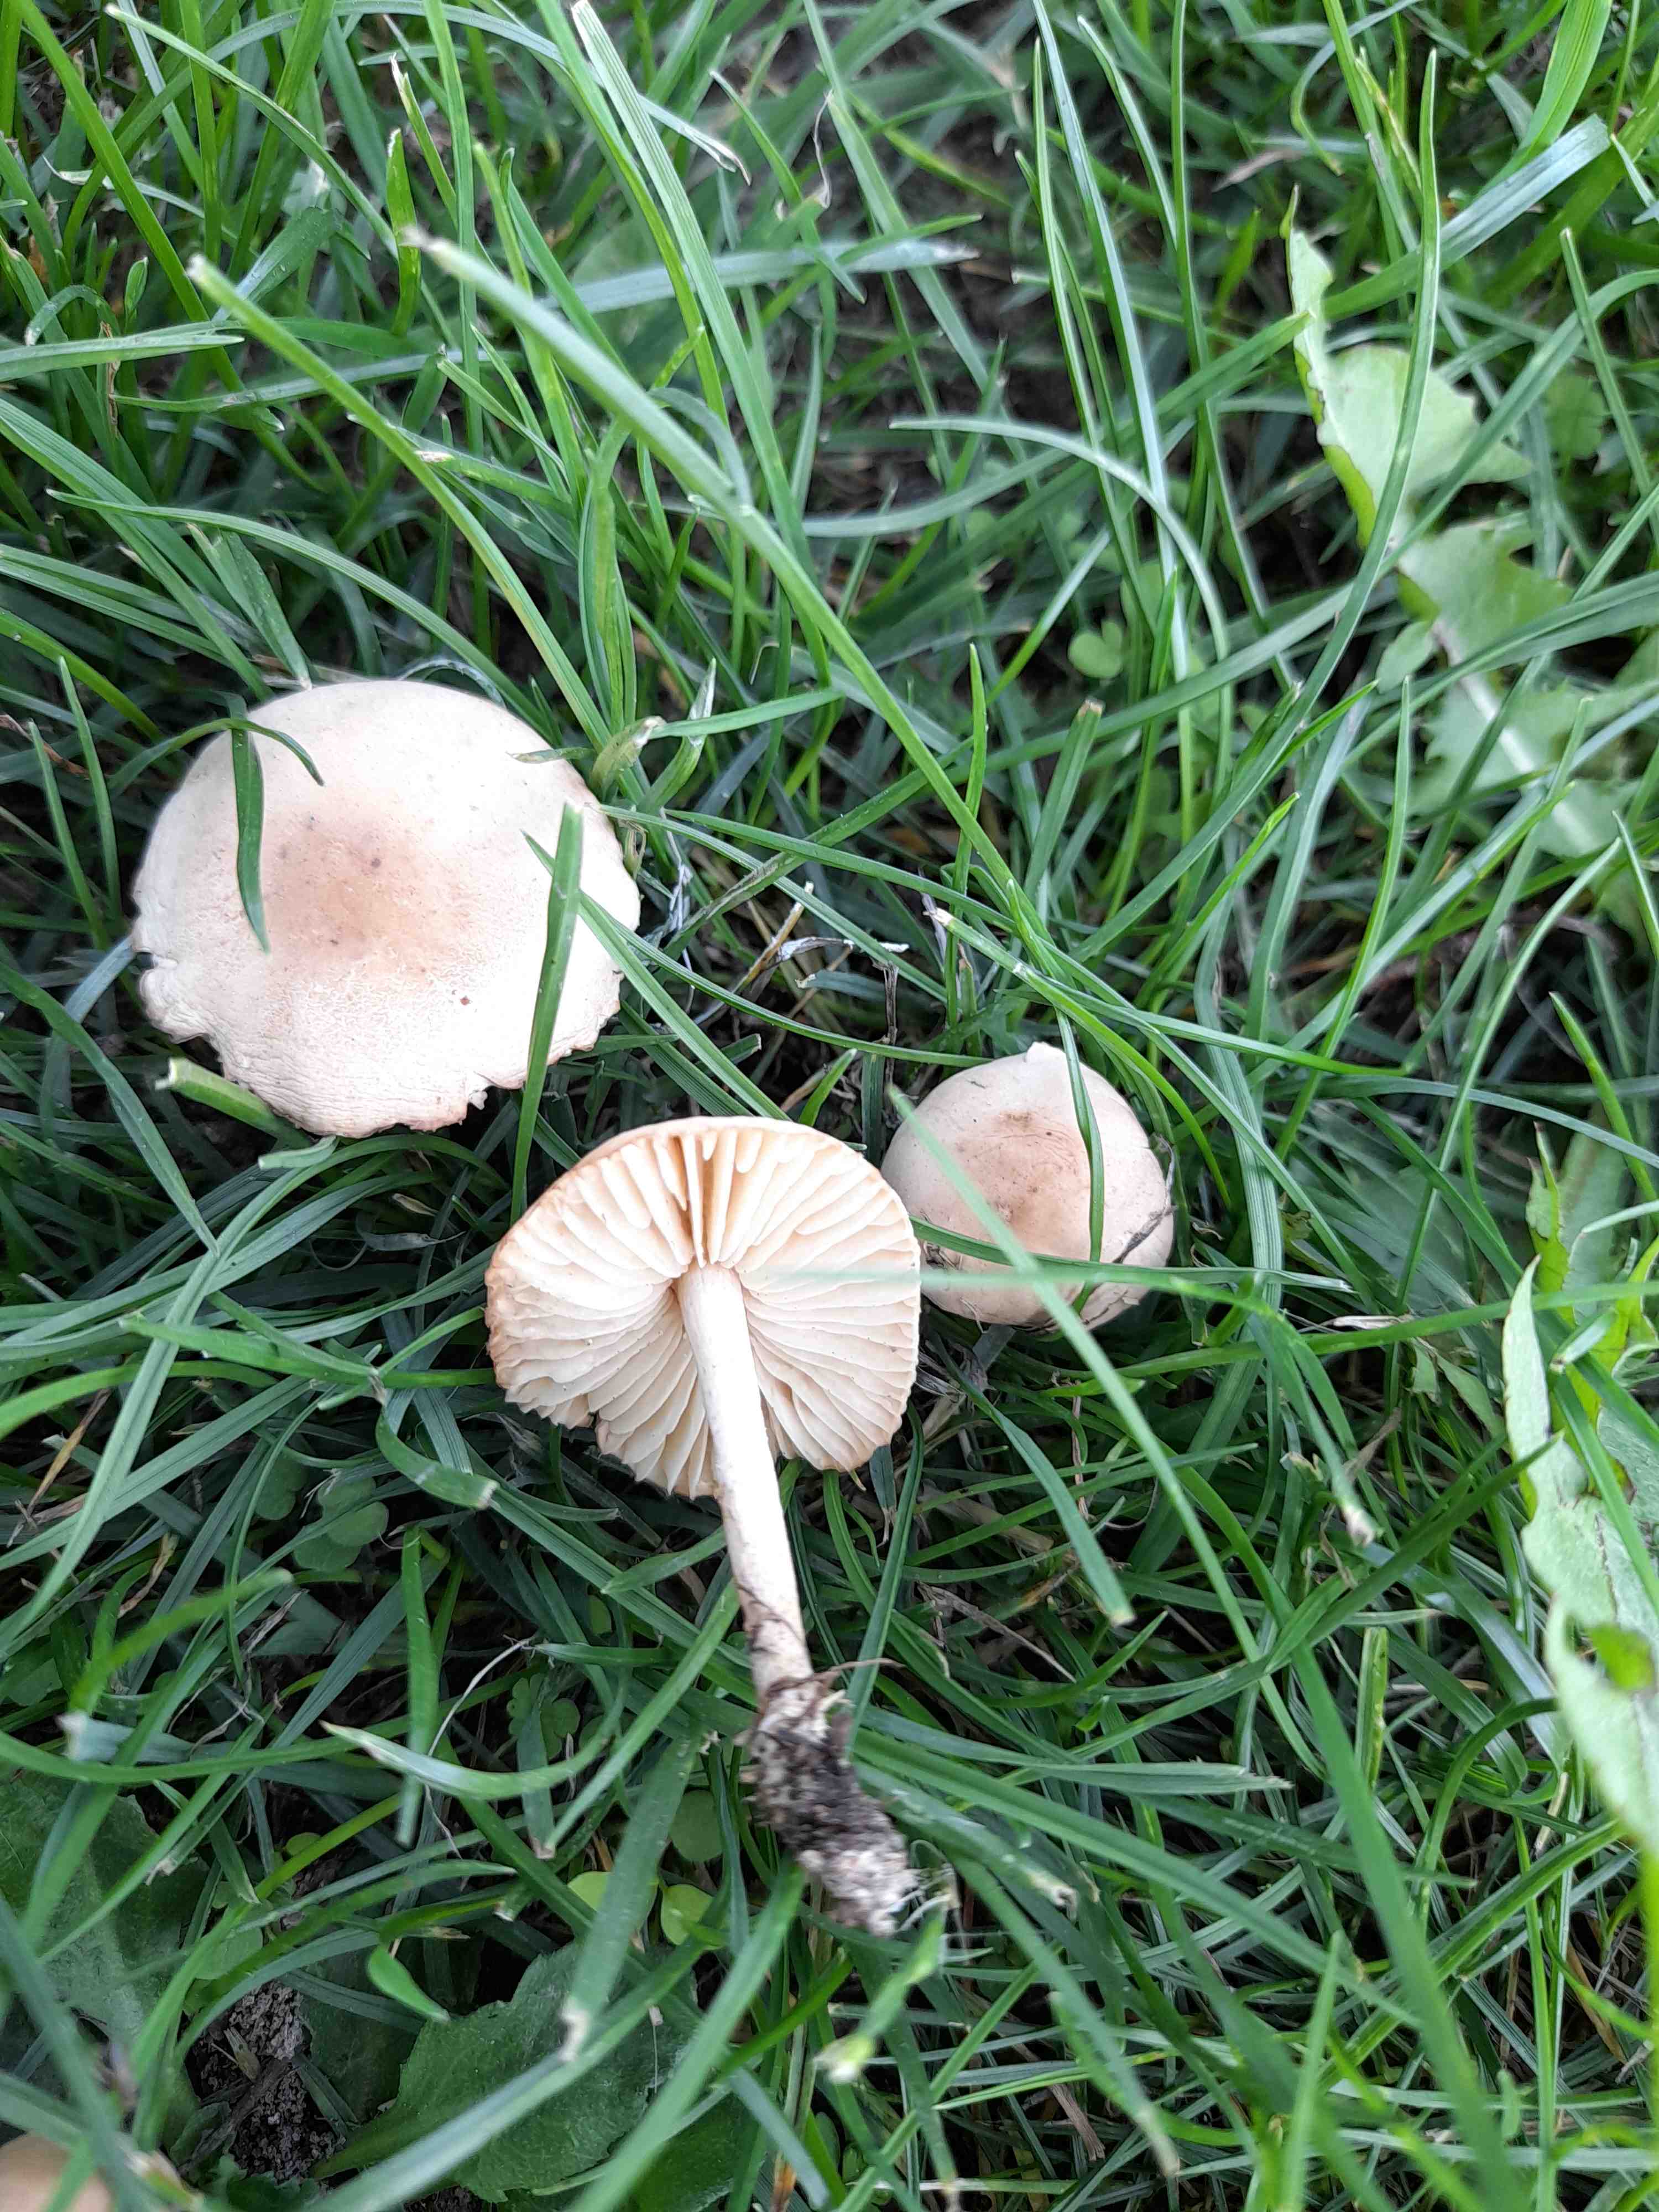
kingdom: Fungi
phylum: Basidiomycota
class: Agaricomycetes
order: Agaricales
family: Marasmiaceae
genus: Marasmius
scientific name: Marasmius oreades
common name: elledans-bruskhat
